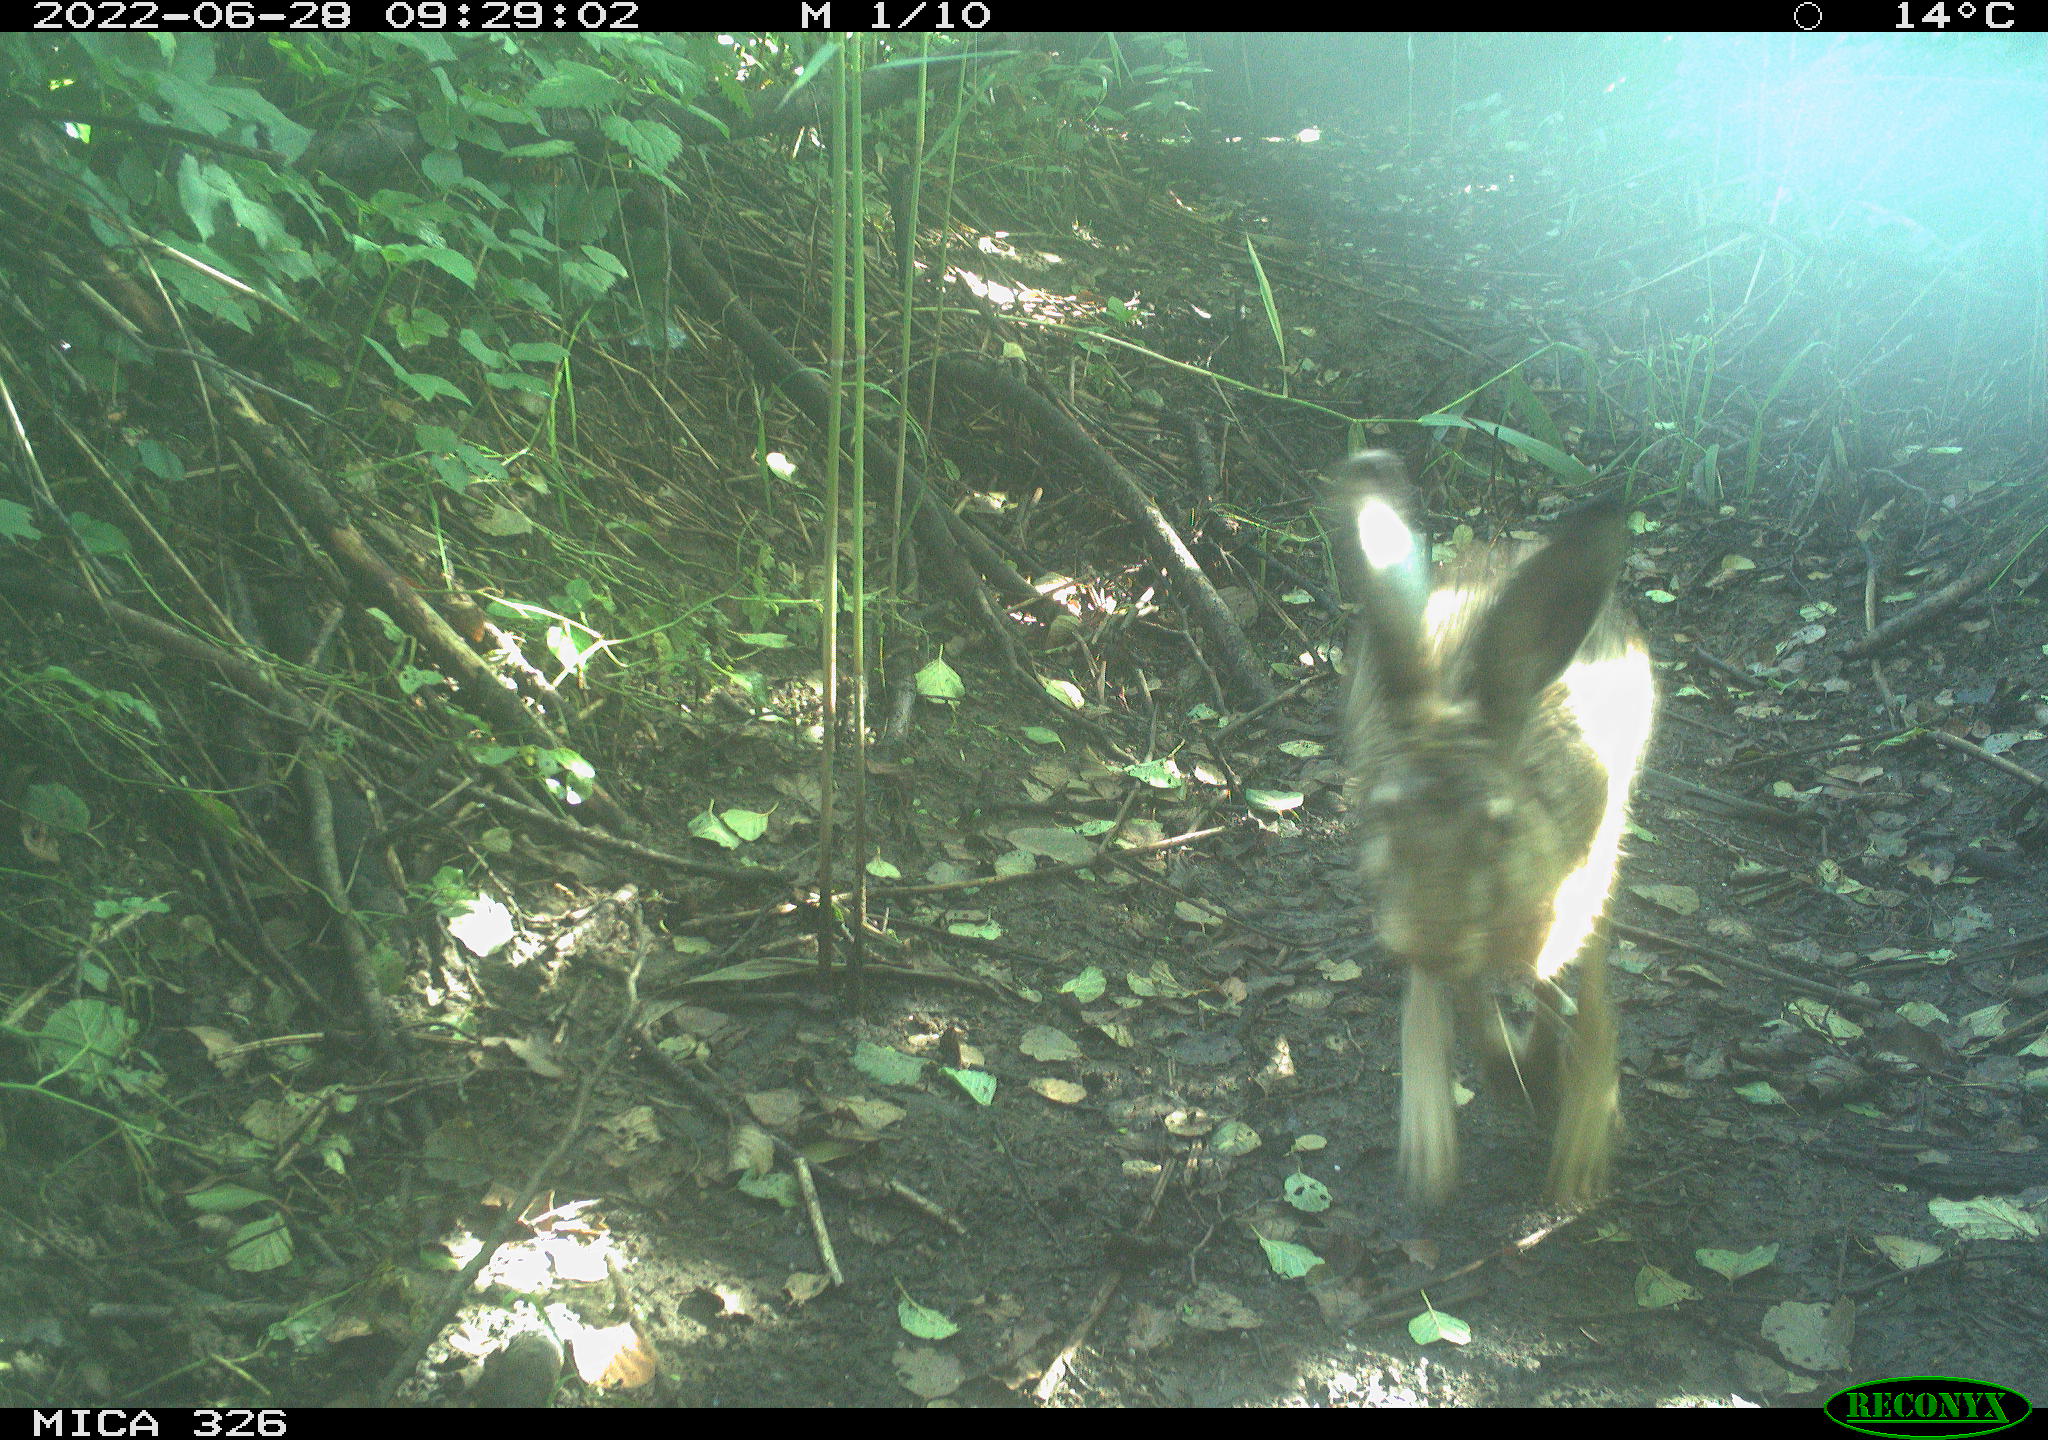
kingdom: Animalia
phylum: Chordata
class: Mammalia
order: Lagomorpha
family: Leporidae
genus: Lepus
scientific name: Lepus europaeus
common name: European hare
